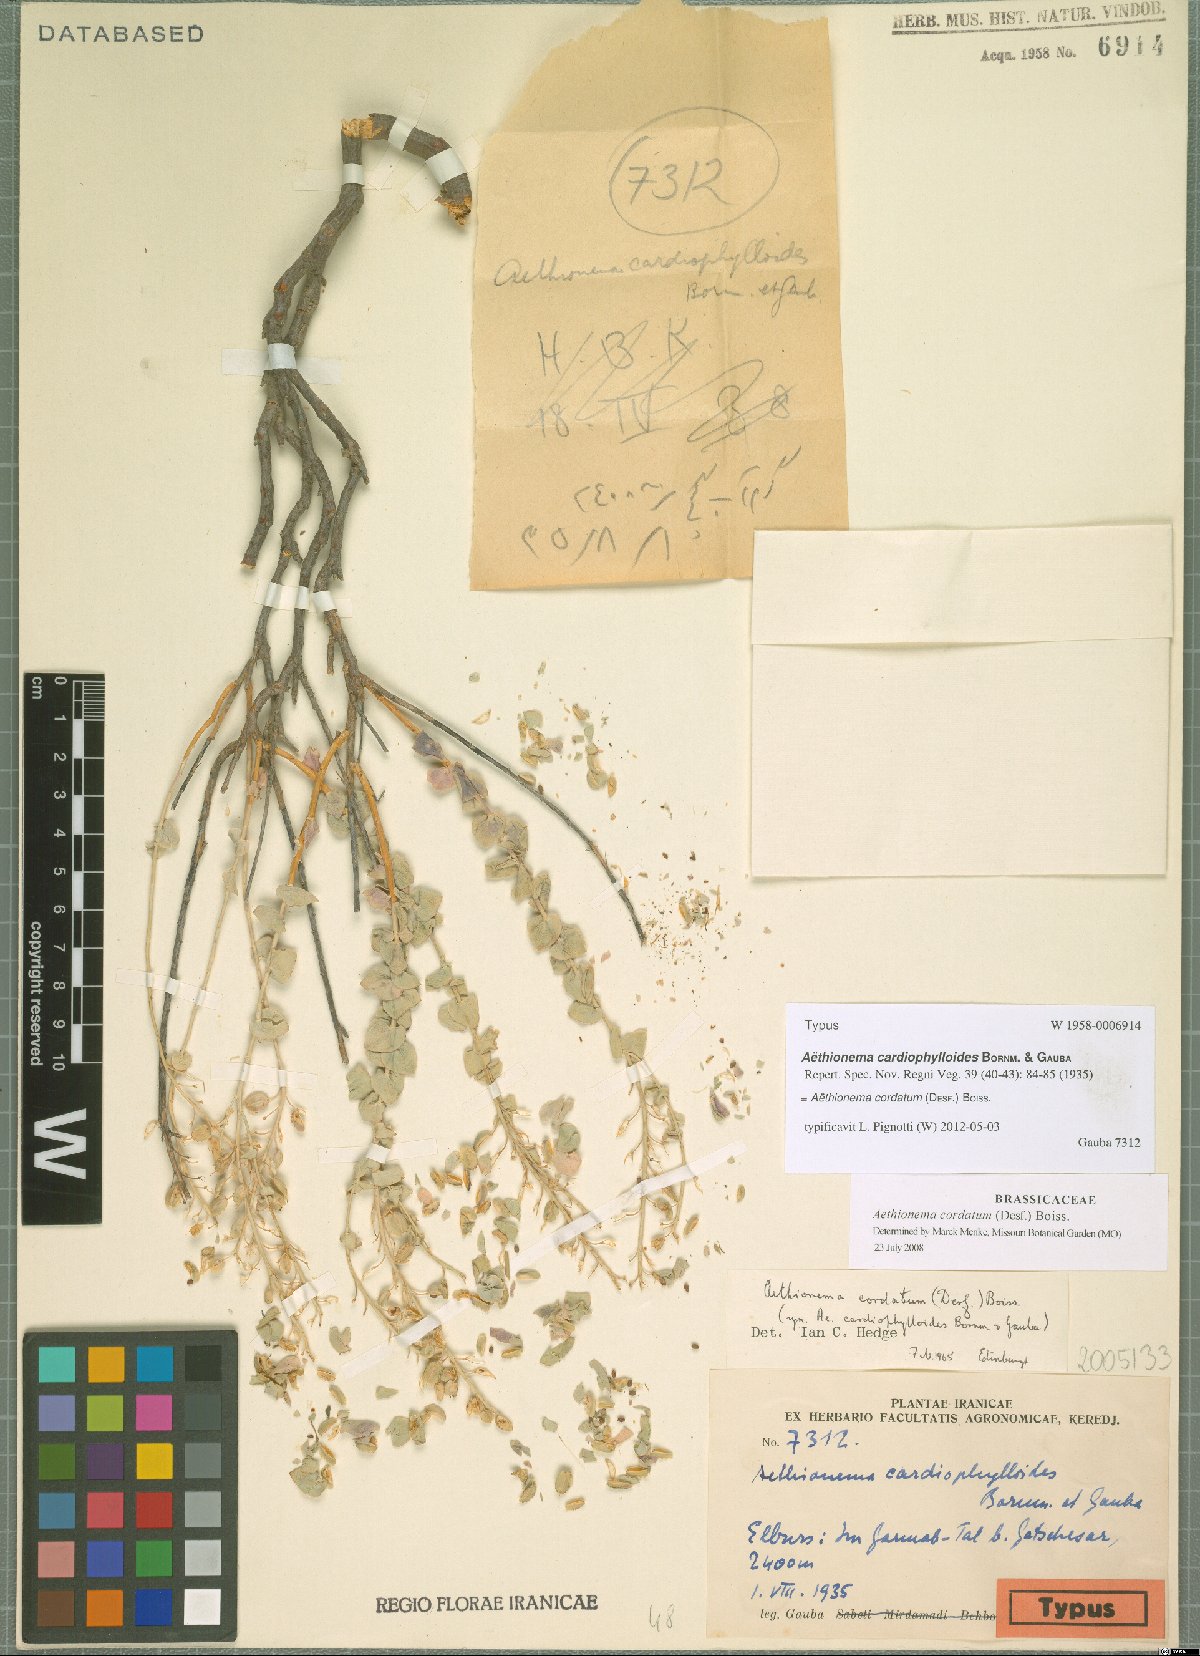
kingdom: Plantae
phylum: Tracheophyta
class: Magnoliopsida
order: Brassicales
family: Brassicaceae
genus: Aethionema
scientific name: Aethionema cordatum
